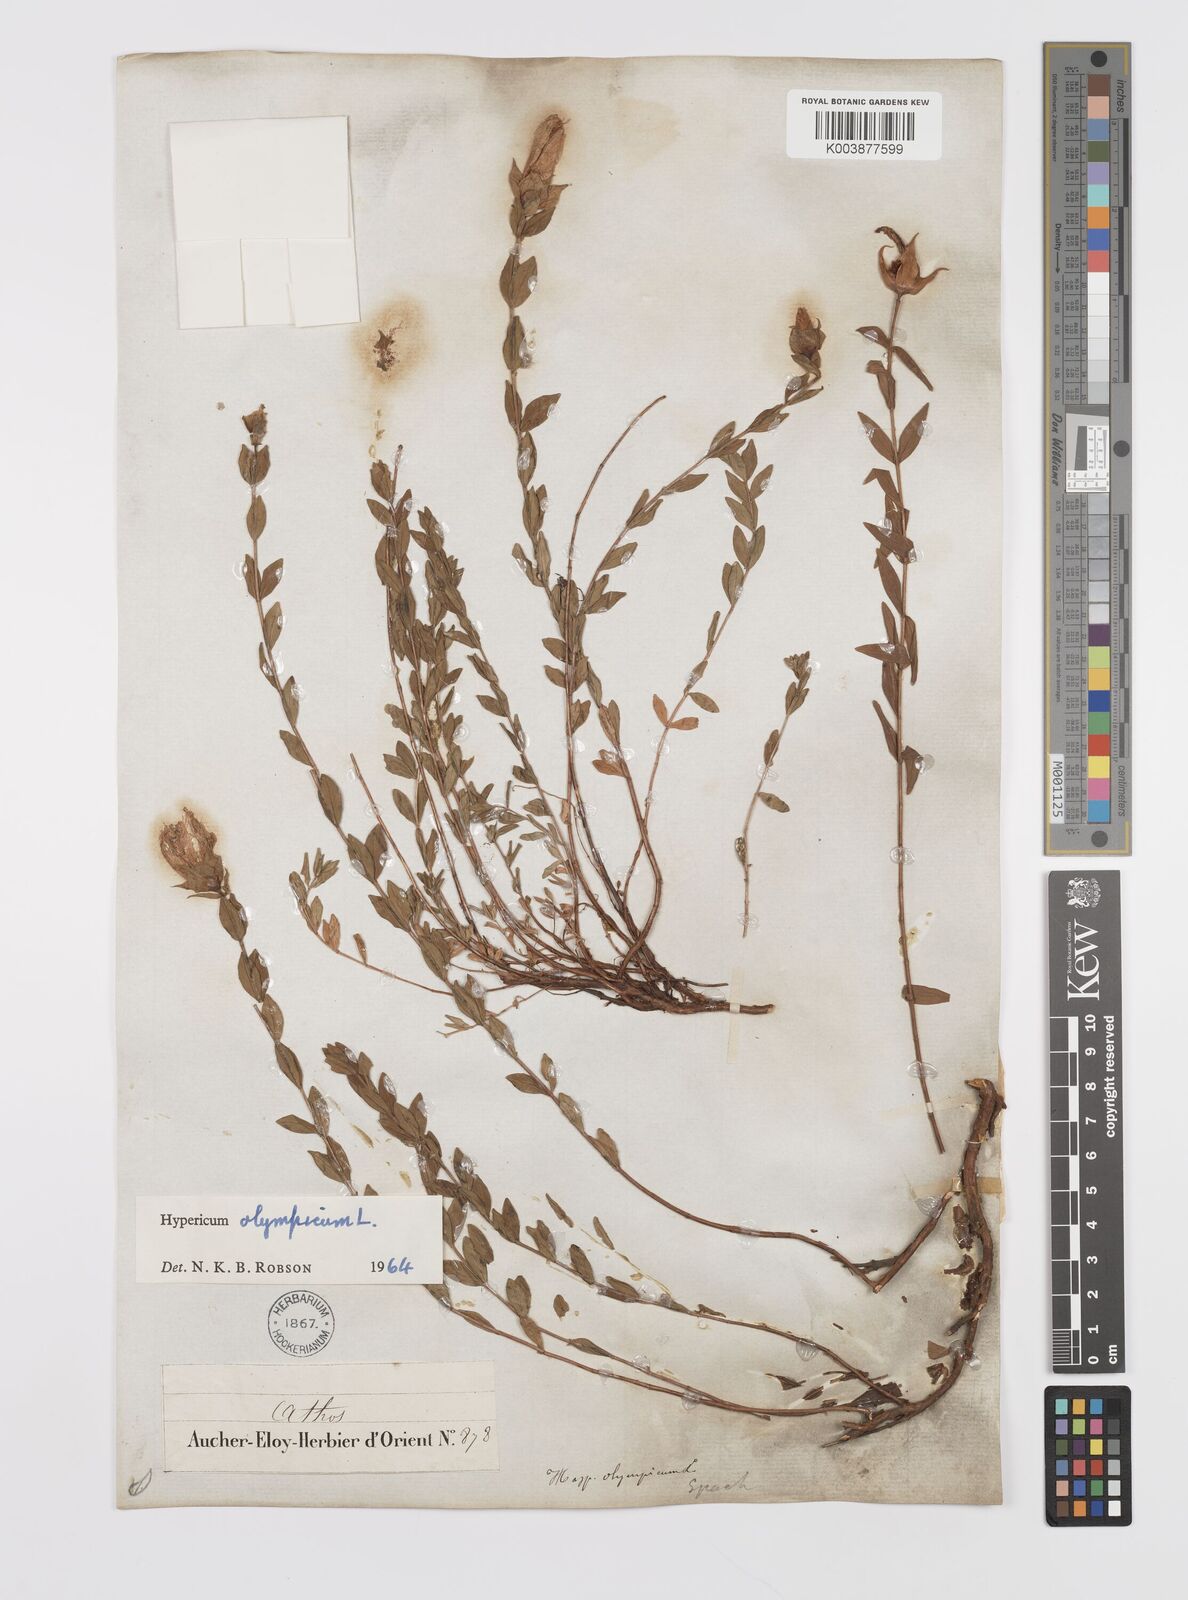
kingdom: Plantae
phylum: Tracheophyta
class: Magnoliopsida
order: Malpighiales
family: Hypericaceae
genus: Hypericum
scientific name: Hypericum olympicum
